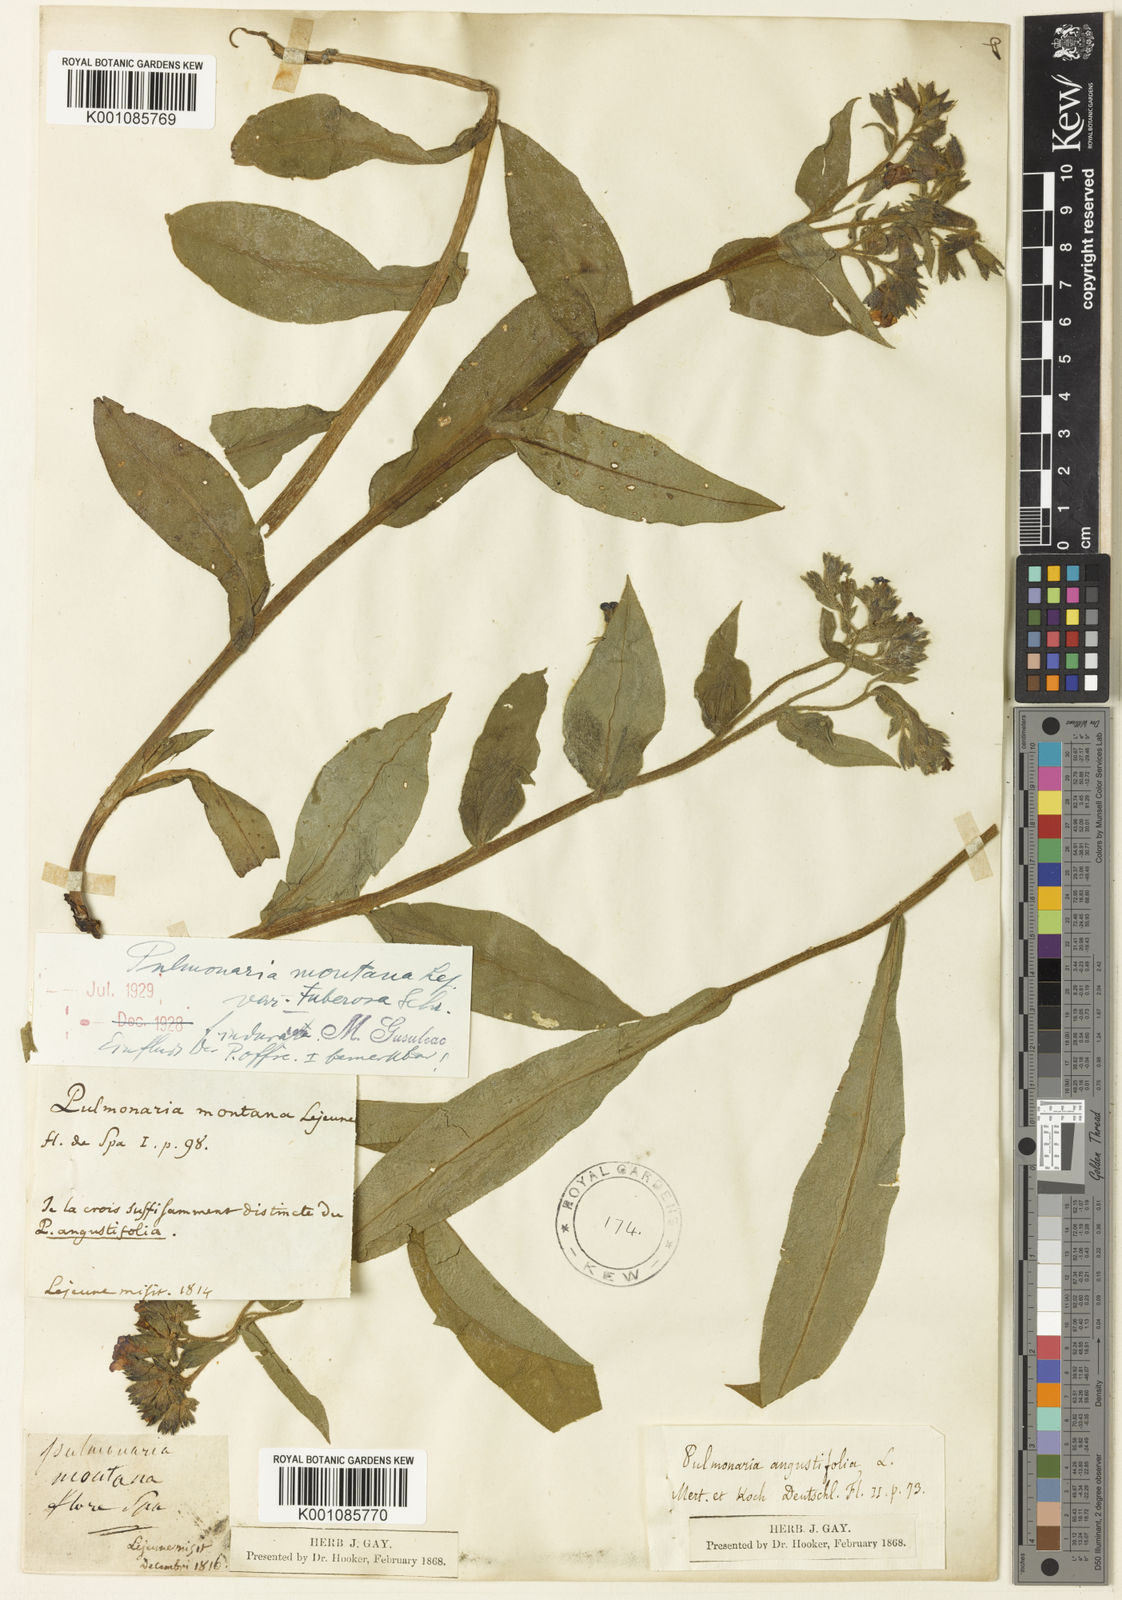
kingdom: Plantae
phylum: Tracheophyta
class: Magnoliopsida
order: Boraginales
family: Boraginaceae
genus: Pulmonaria
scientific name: Pulmonaria montana
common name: Mountain lungwort
